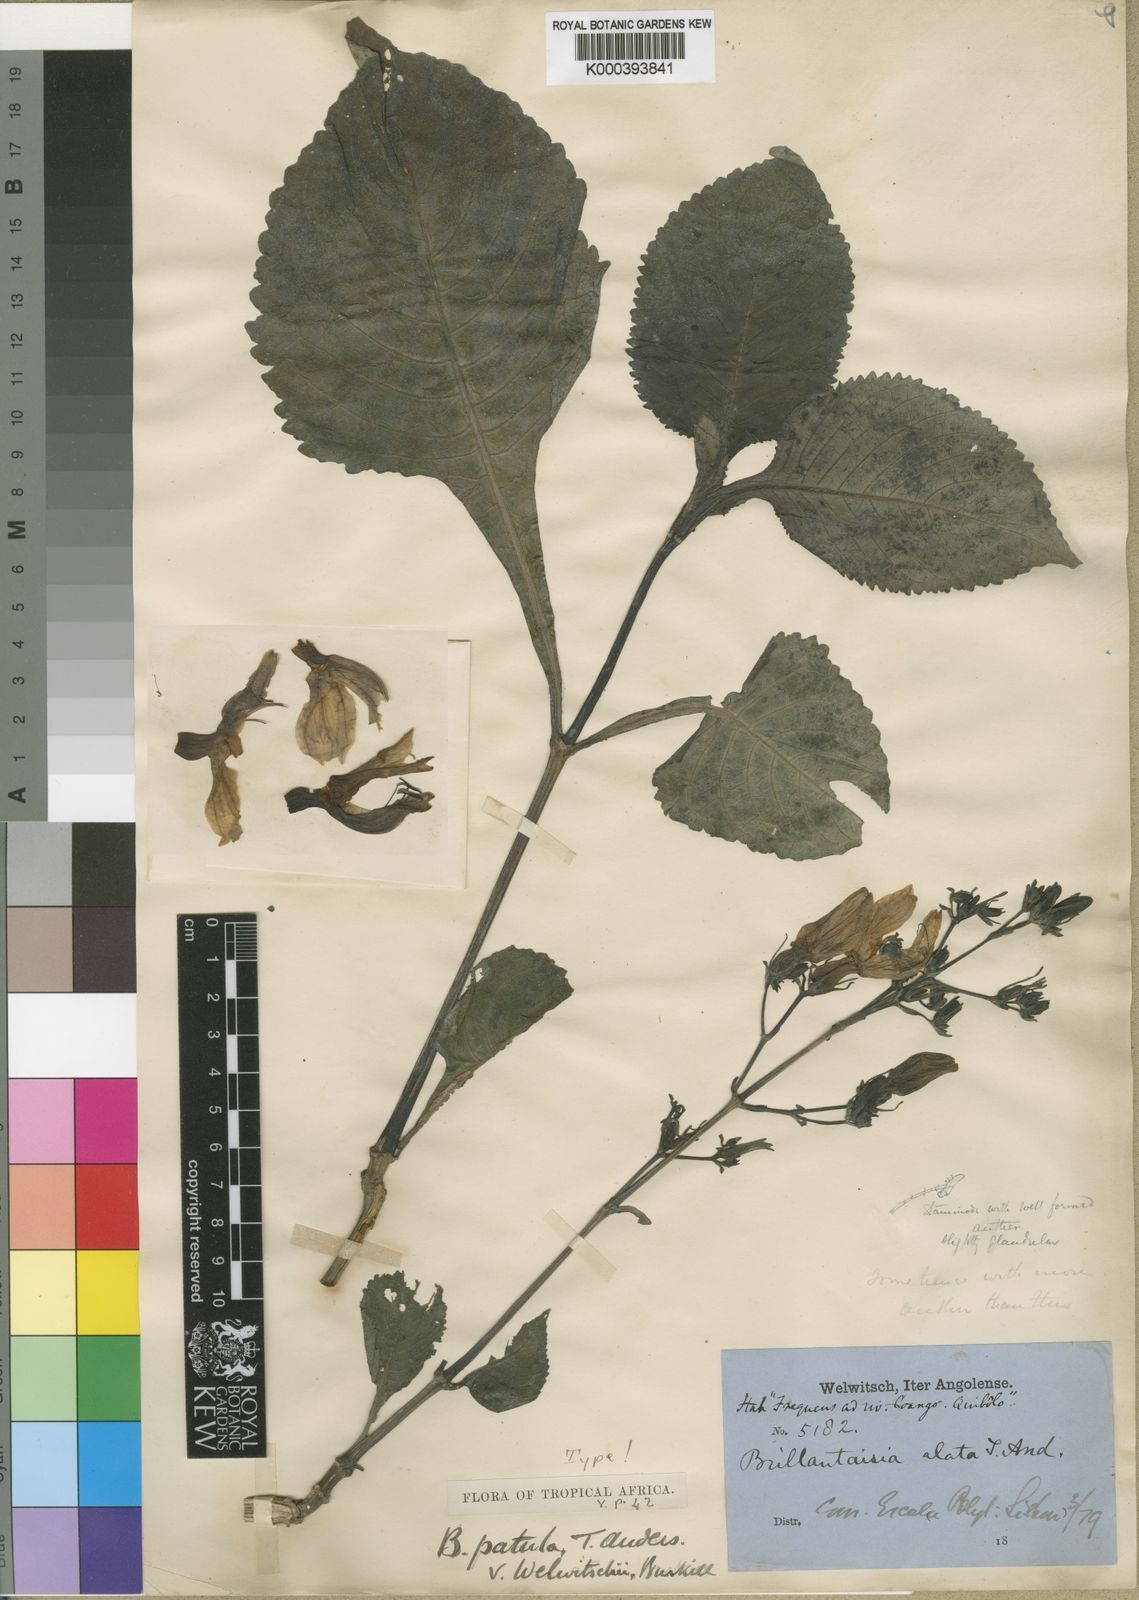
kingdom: Plantae
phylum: Tracheophyta
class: Magnoliopsida
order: Lamiales
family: Acanthaceae
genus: Brillantaisia
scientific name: Brillantaisia owariensis
